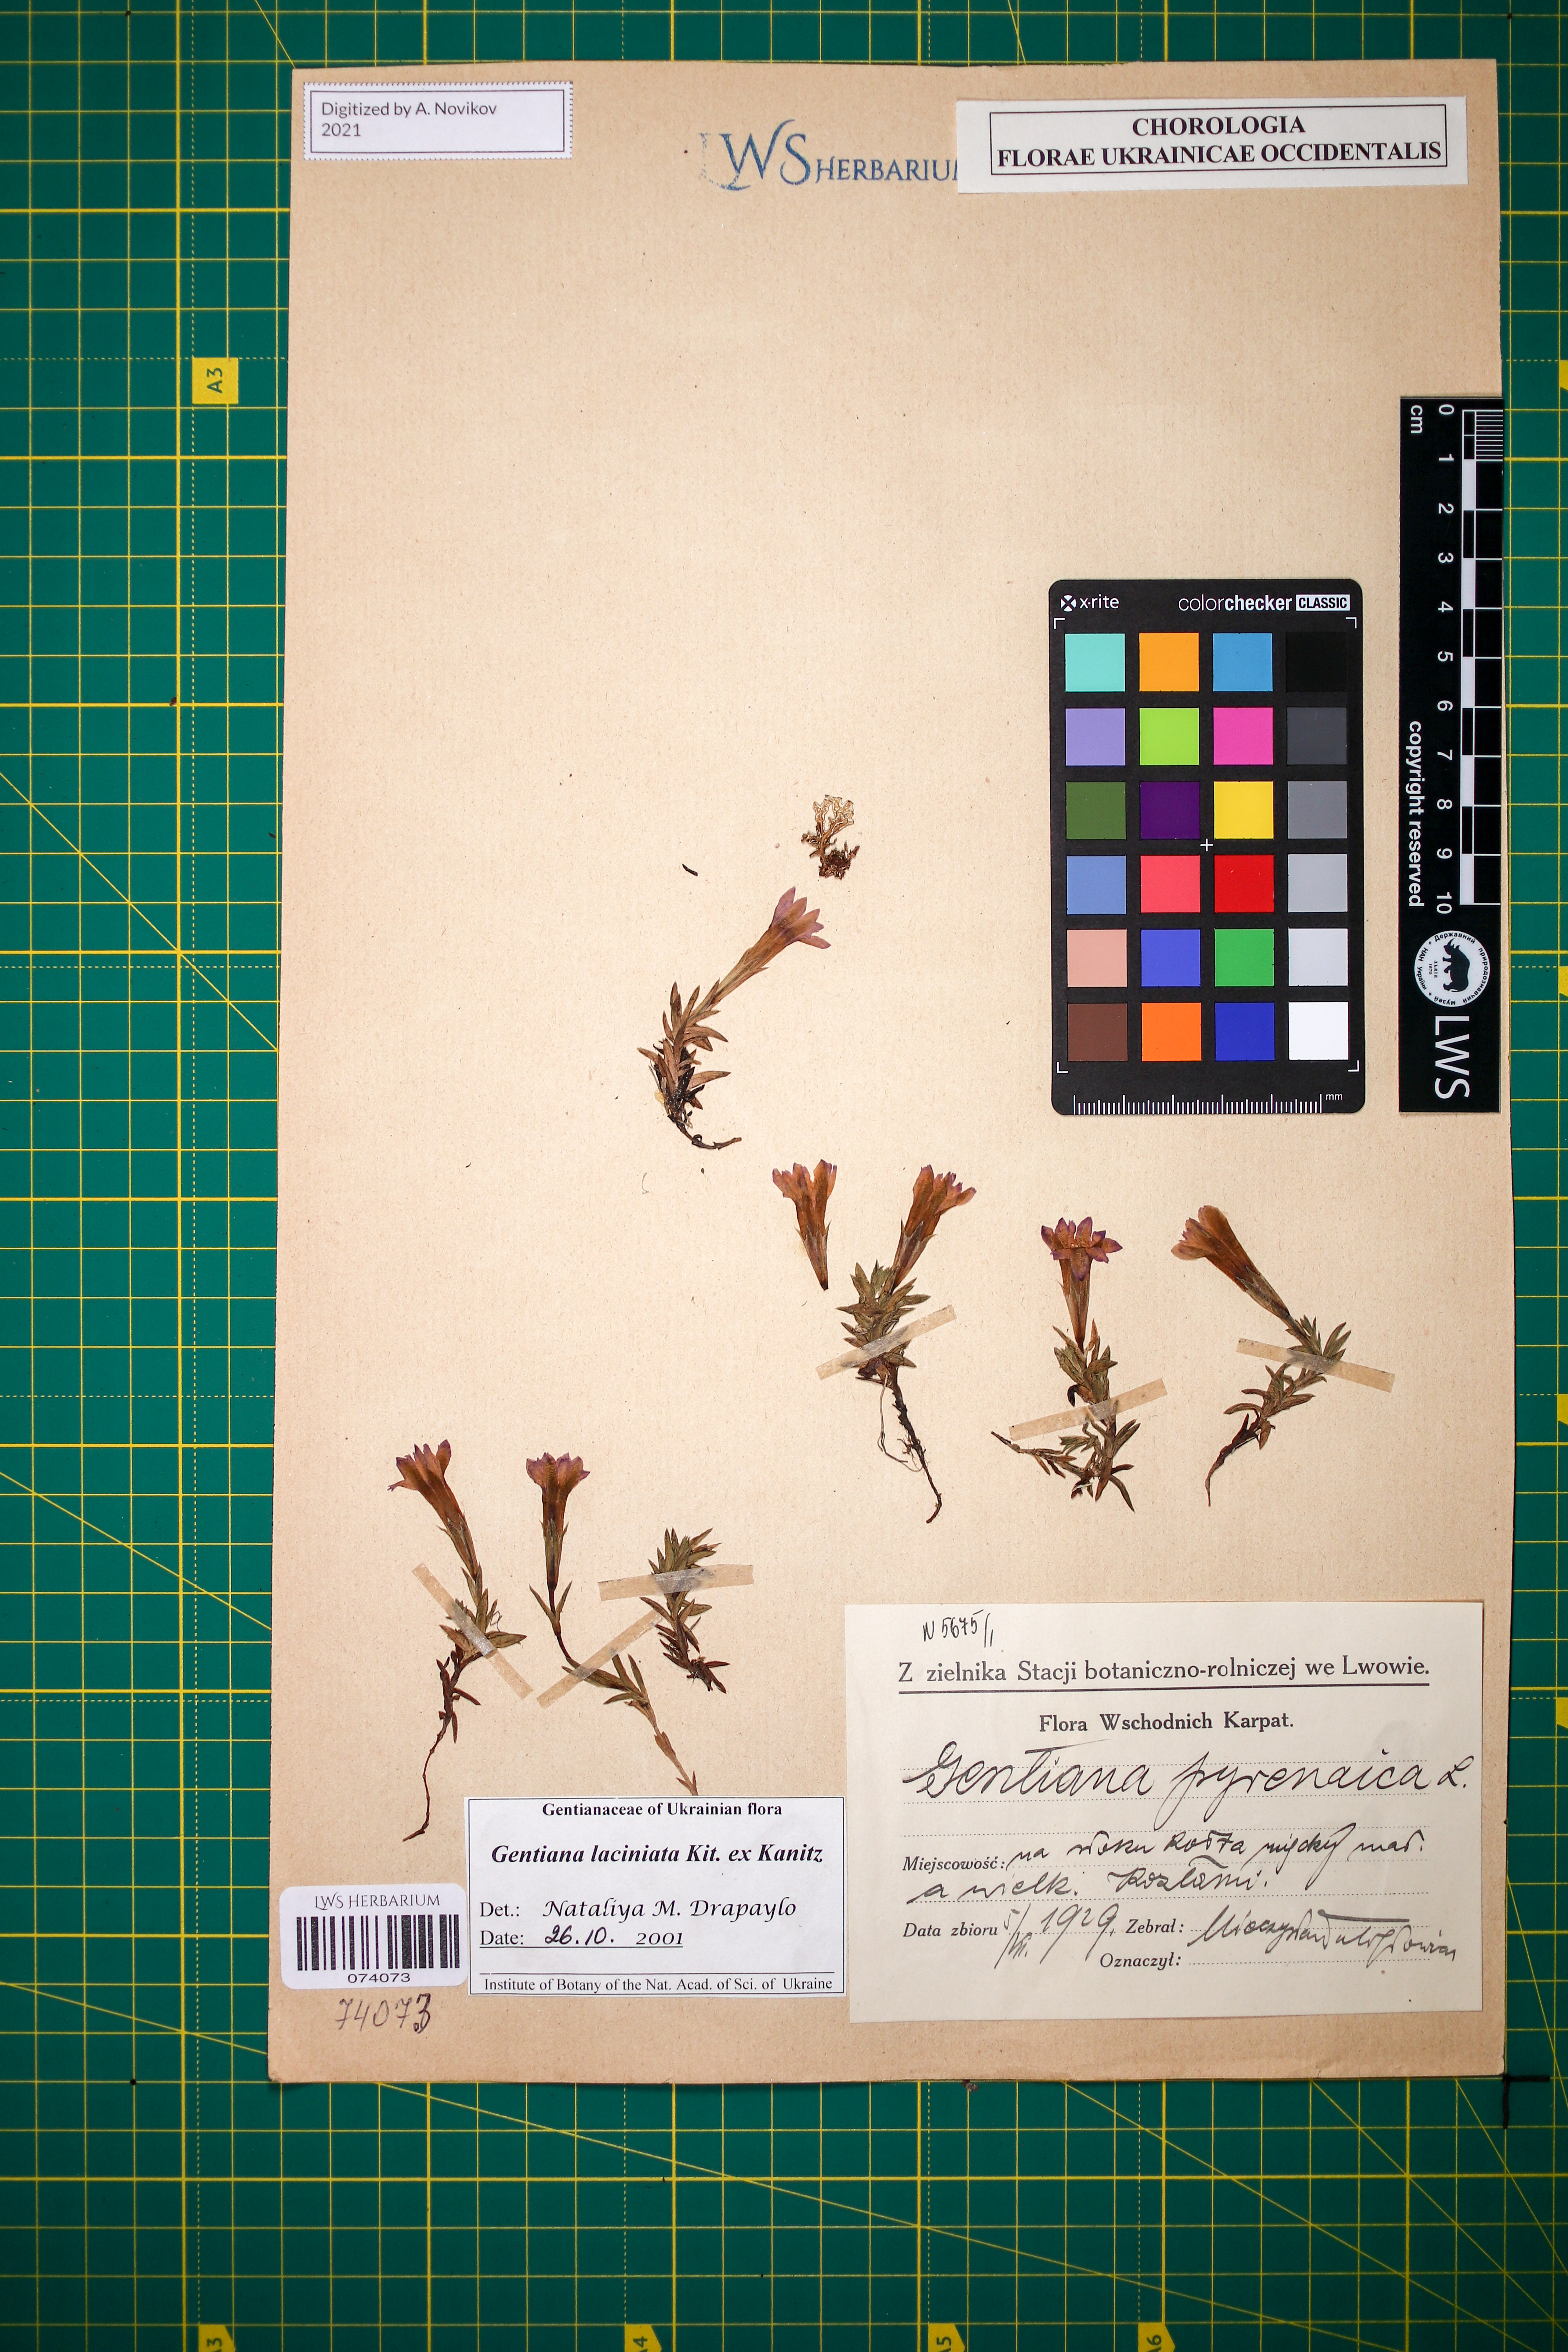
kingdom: Plantae
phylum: Tracheophyta
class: Magnoliopsida
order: Gentianales
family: Gentianaceae
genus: Gentiana
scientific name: Gentiana laciniata
